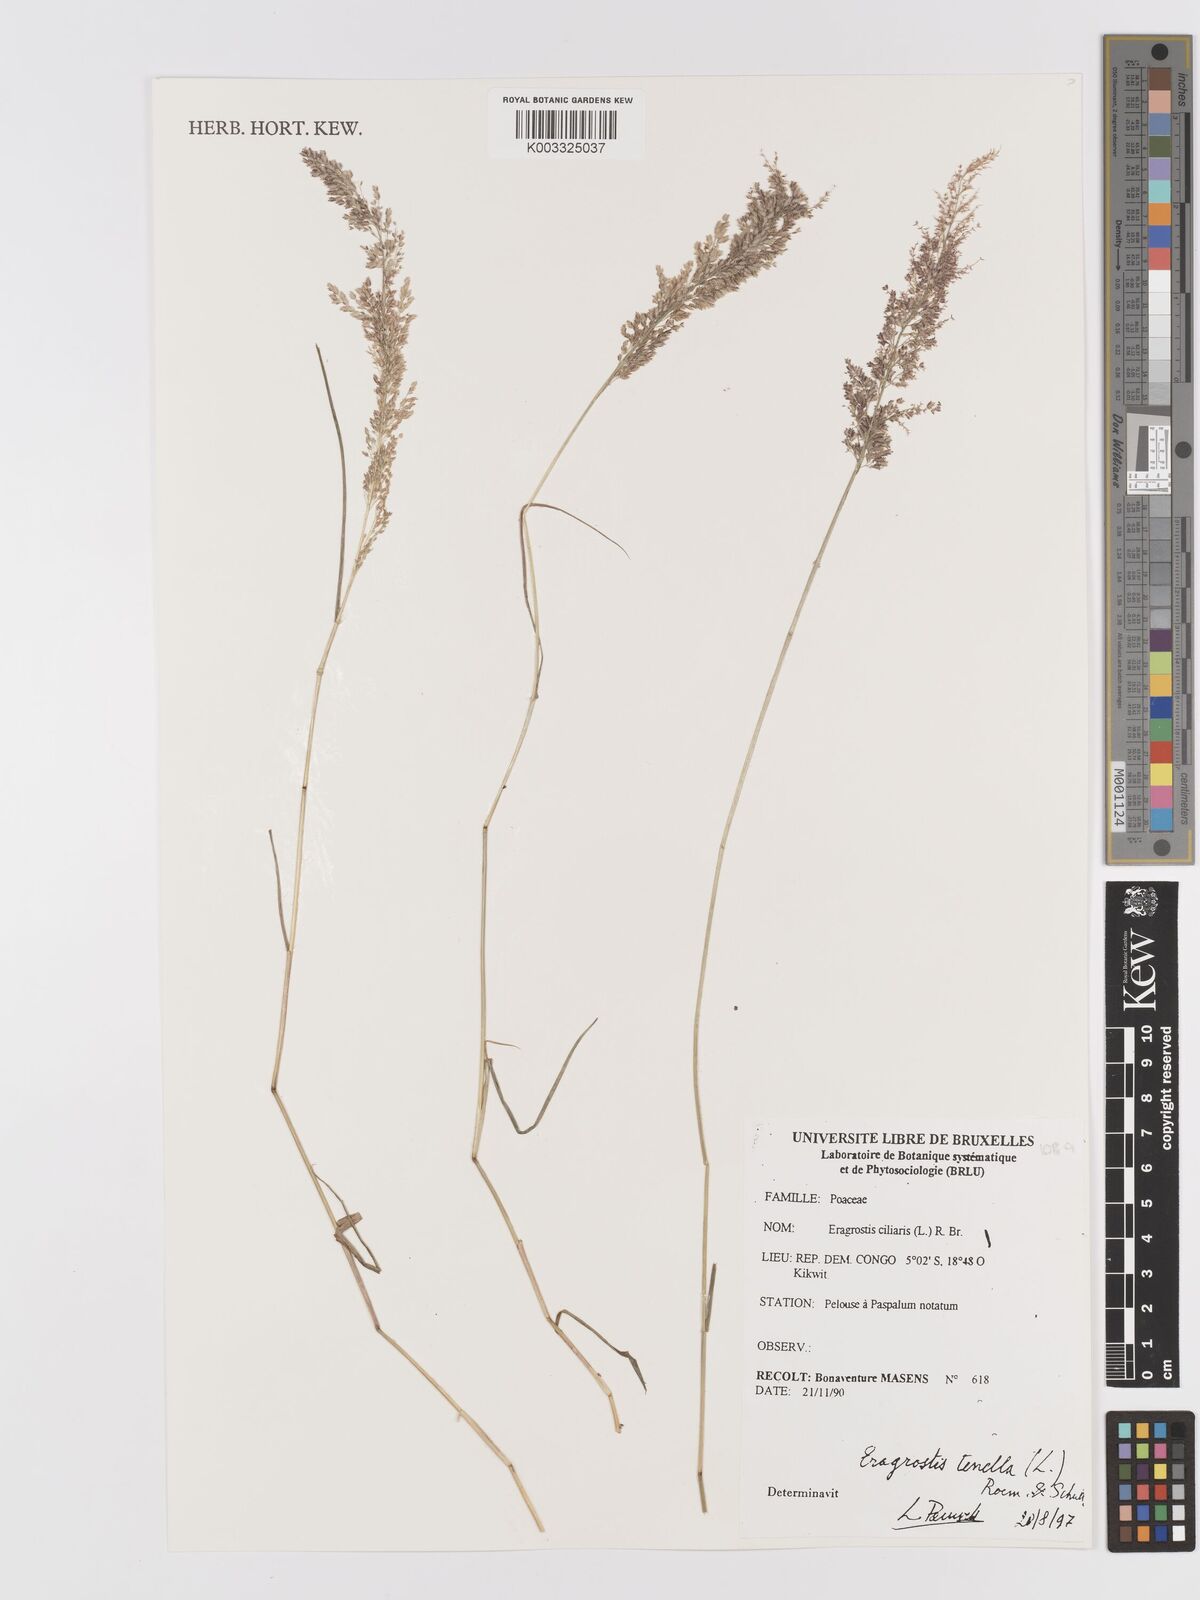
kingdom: Plantae
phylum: Tracheophyta
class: Liliopsida
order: Poales
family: Poaceae
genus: Eragrostis
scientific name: Eragrostis tenella
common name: Japanese lovegrass
